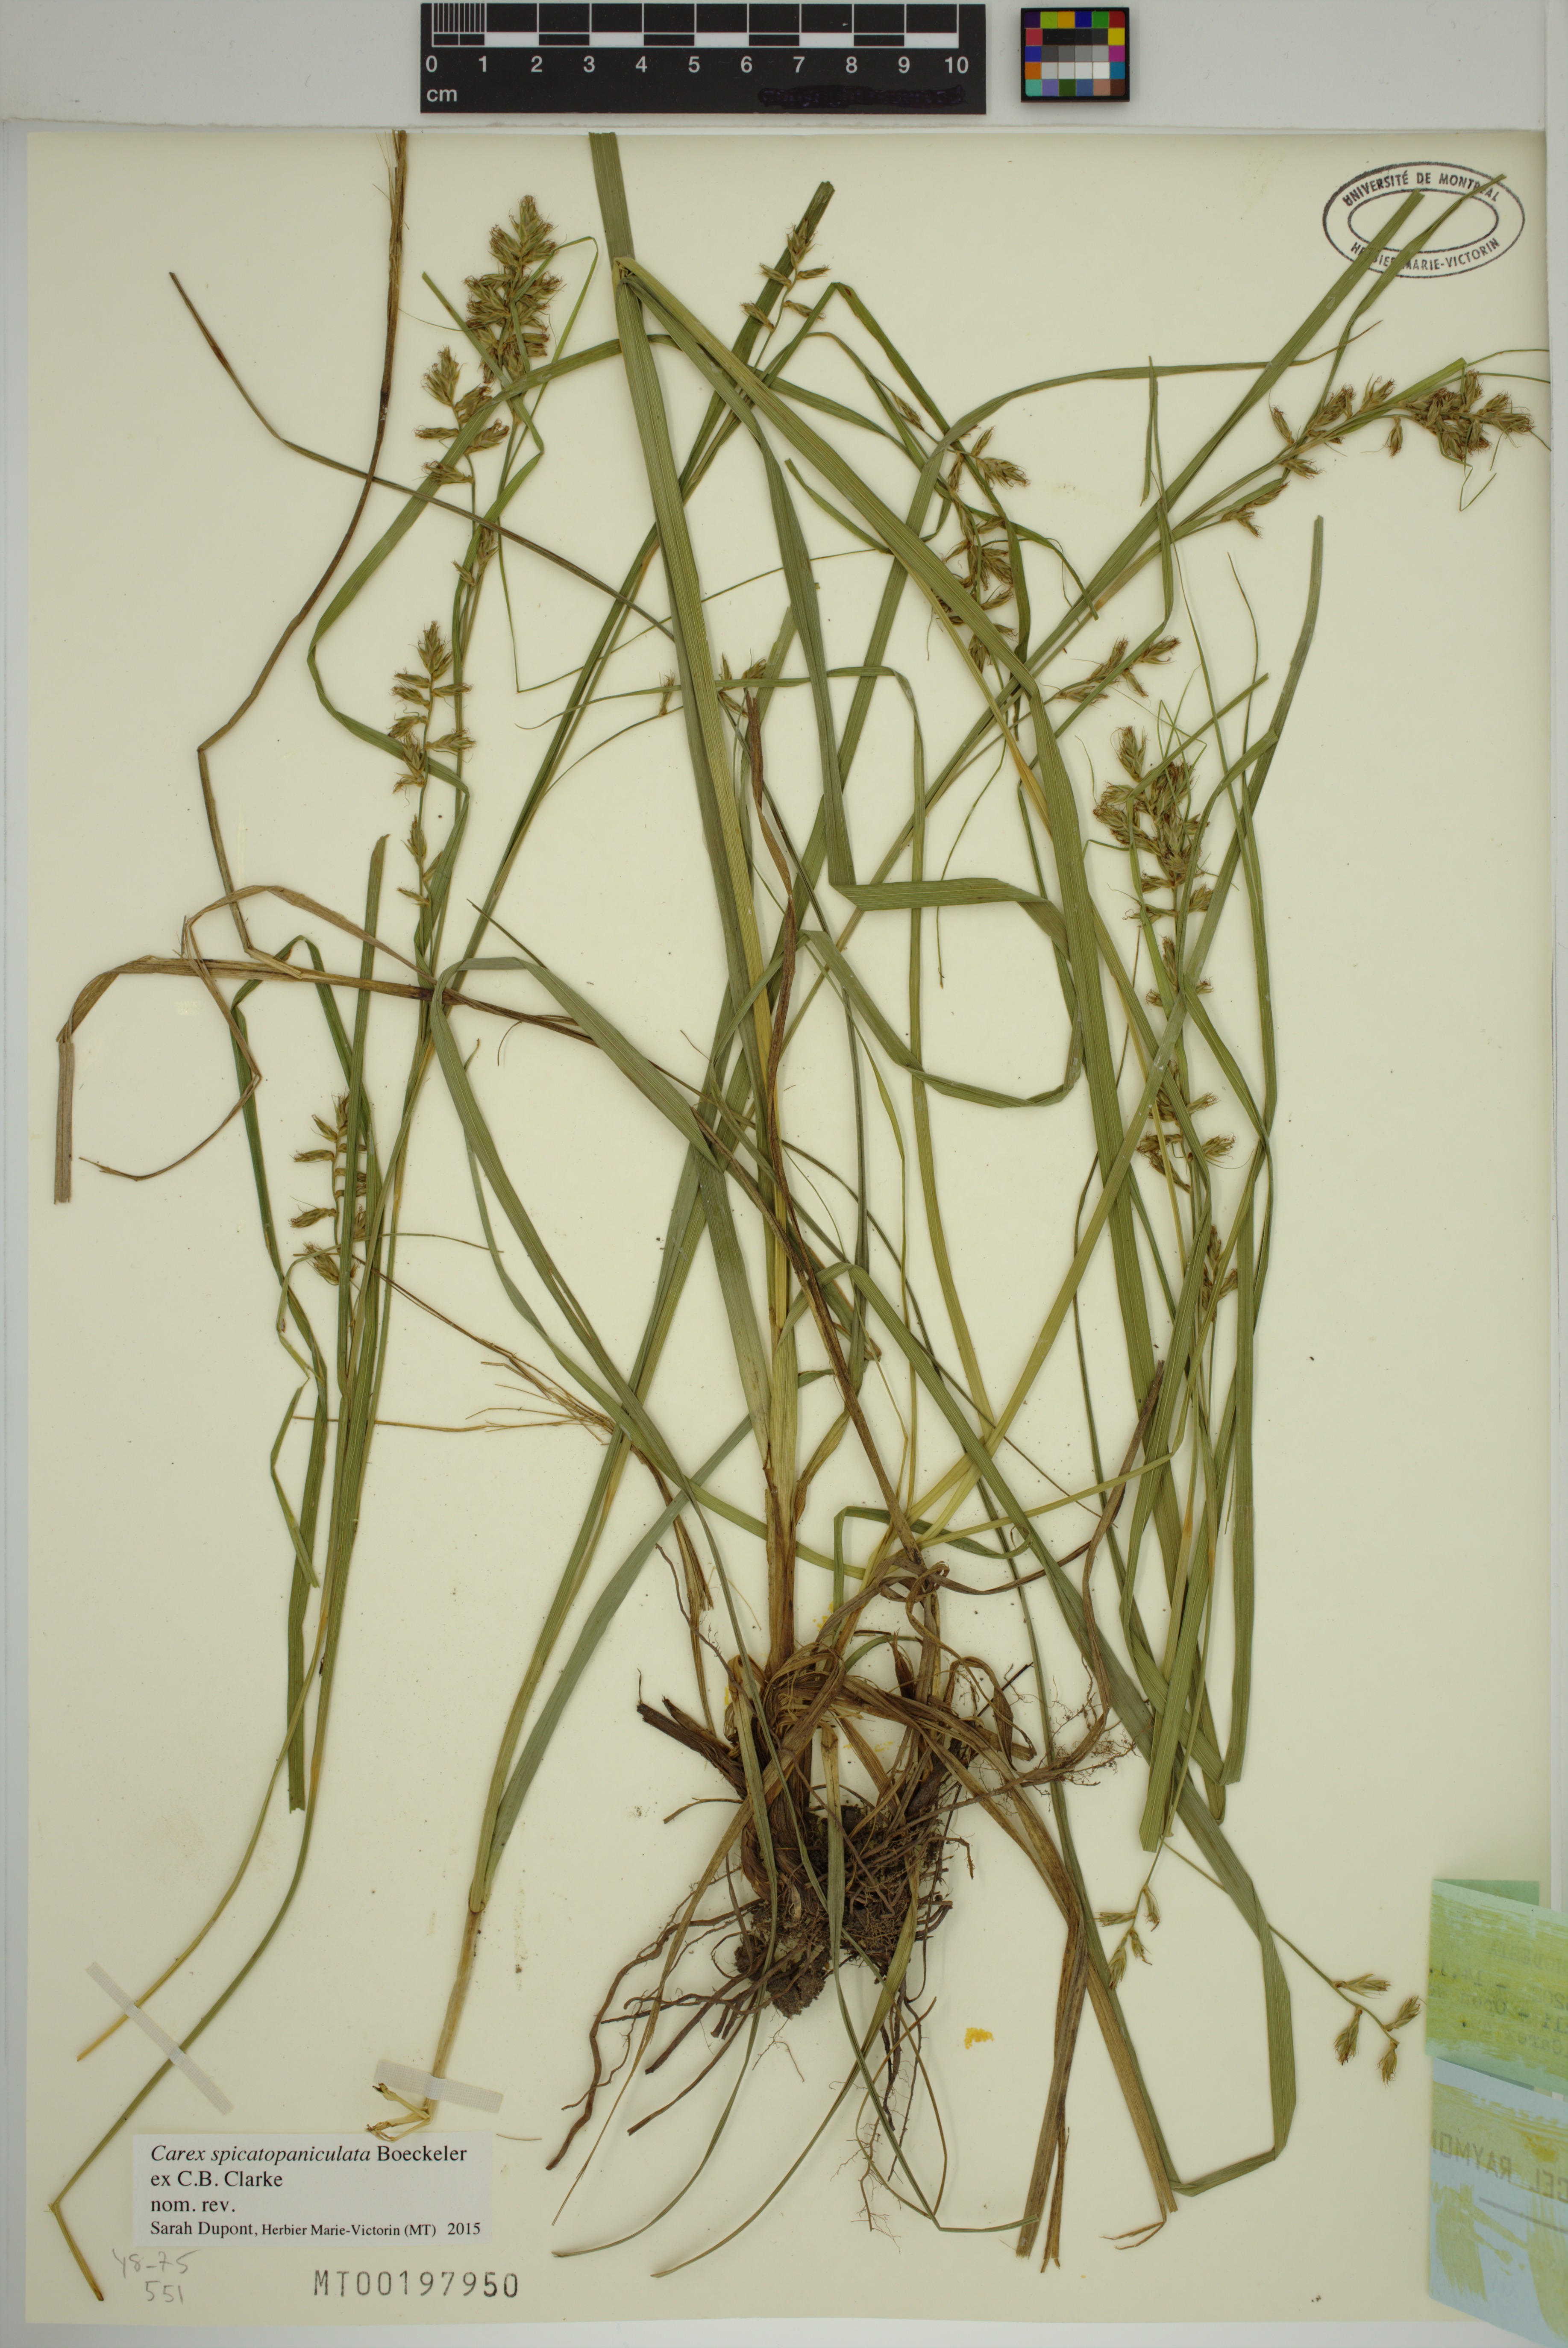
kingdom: Plantae
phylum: Tracheophyta
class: Liliopsida
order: Poales
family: Cyperaceae
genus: Carex
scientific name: Carex spicatopaniculata
